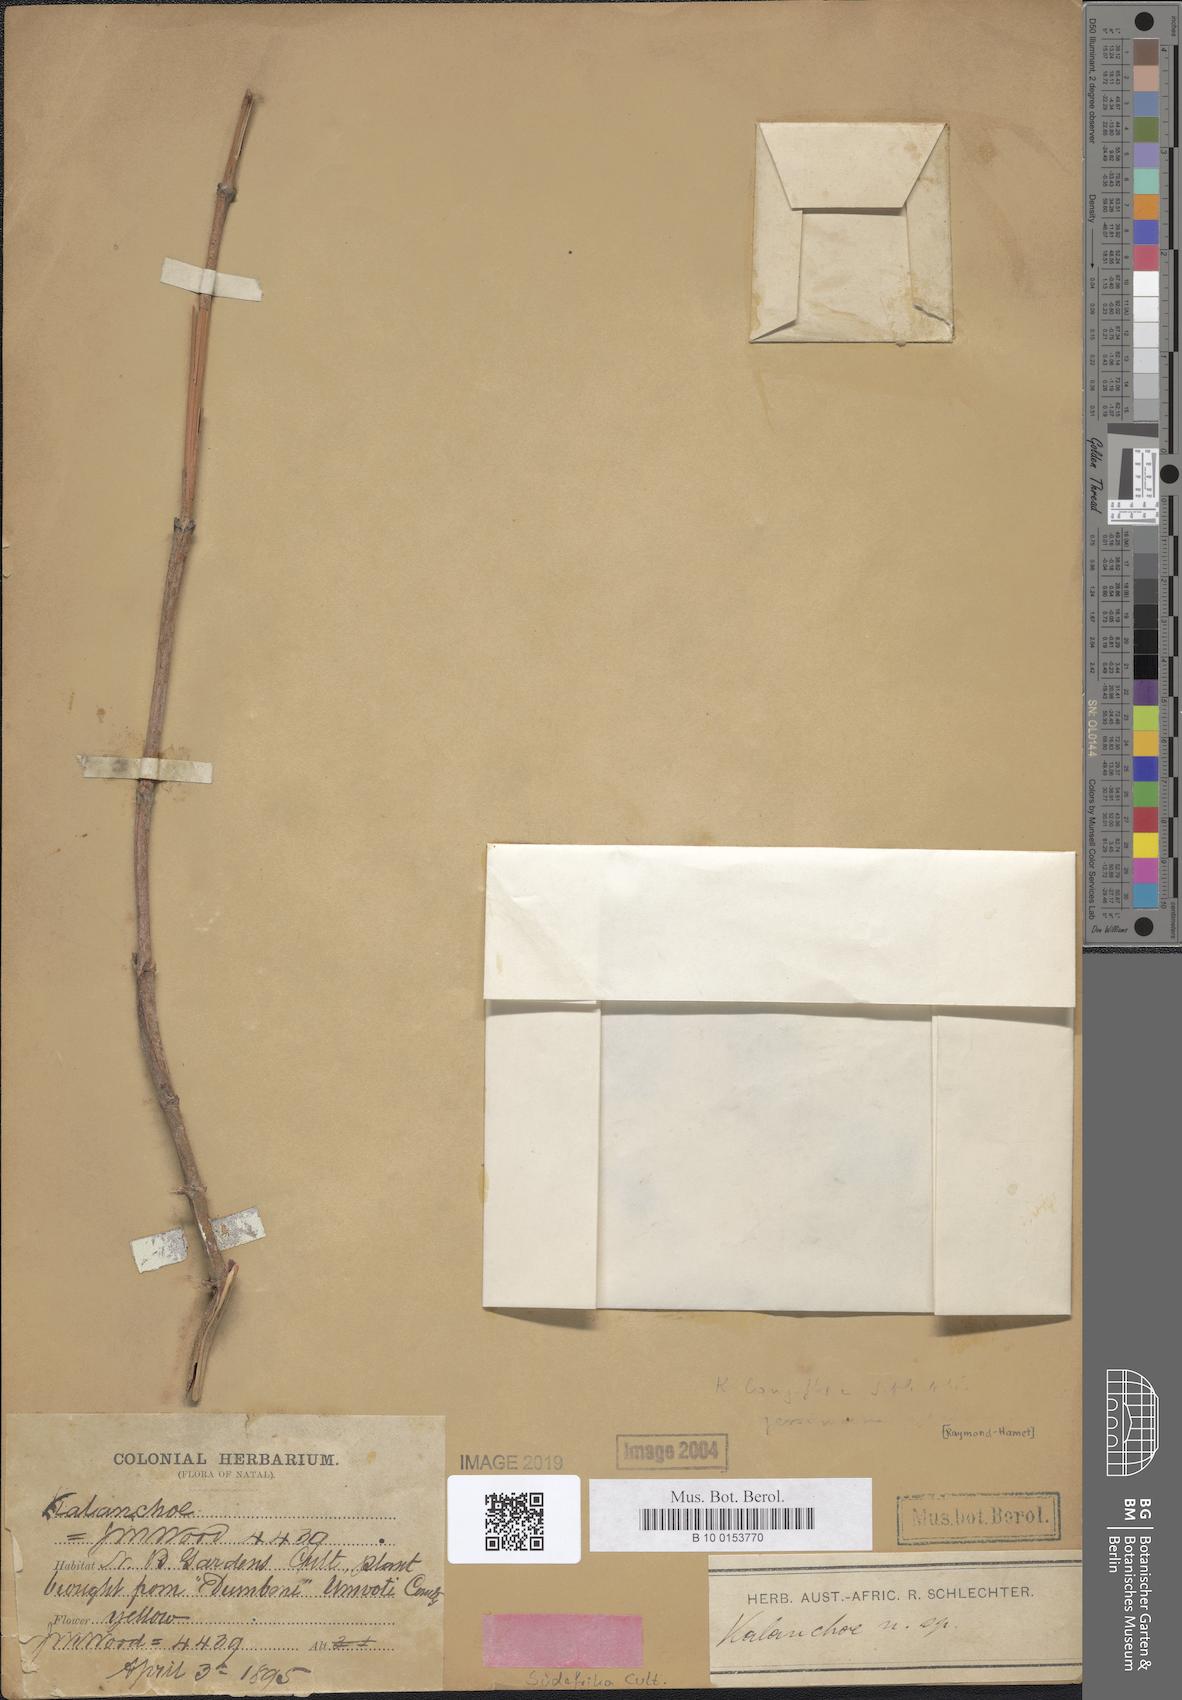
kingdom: Plantae
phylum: Tracheophyta
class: Magnoliopsida
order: Saxifragales
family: Crassulaceae
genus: Kalanchoe
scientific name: Kalanchoe longiflora
